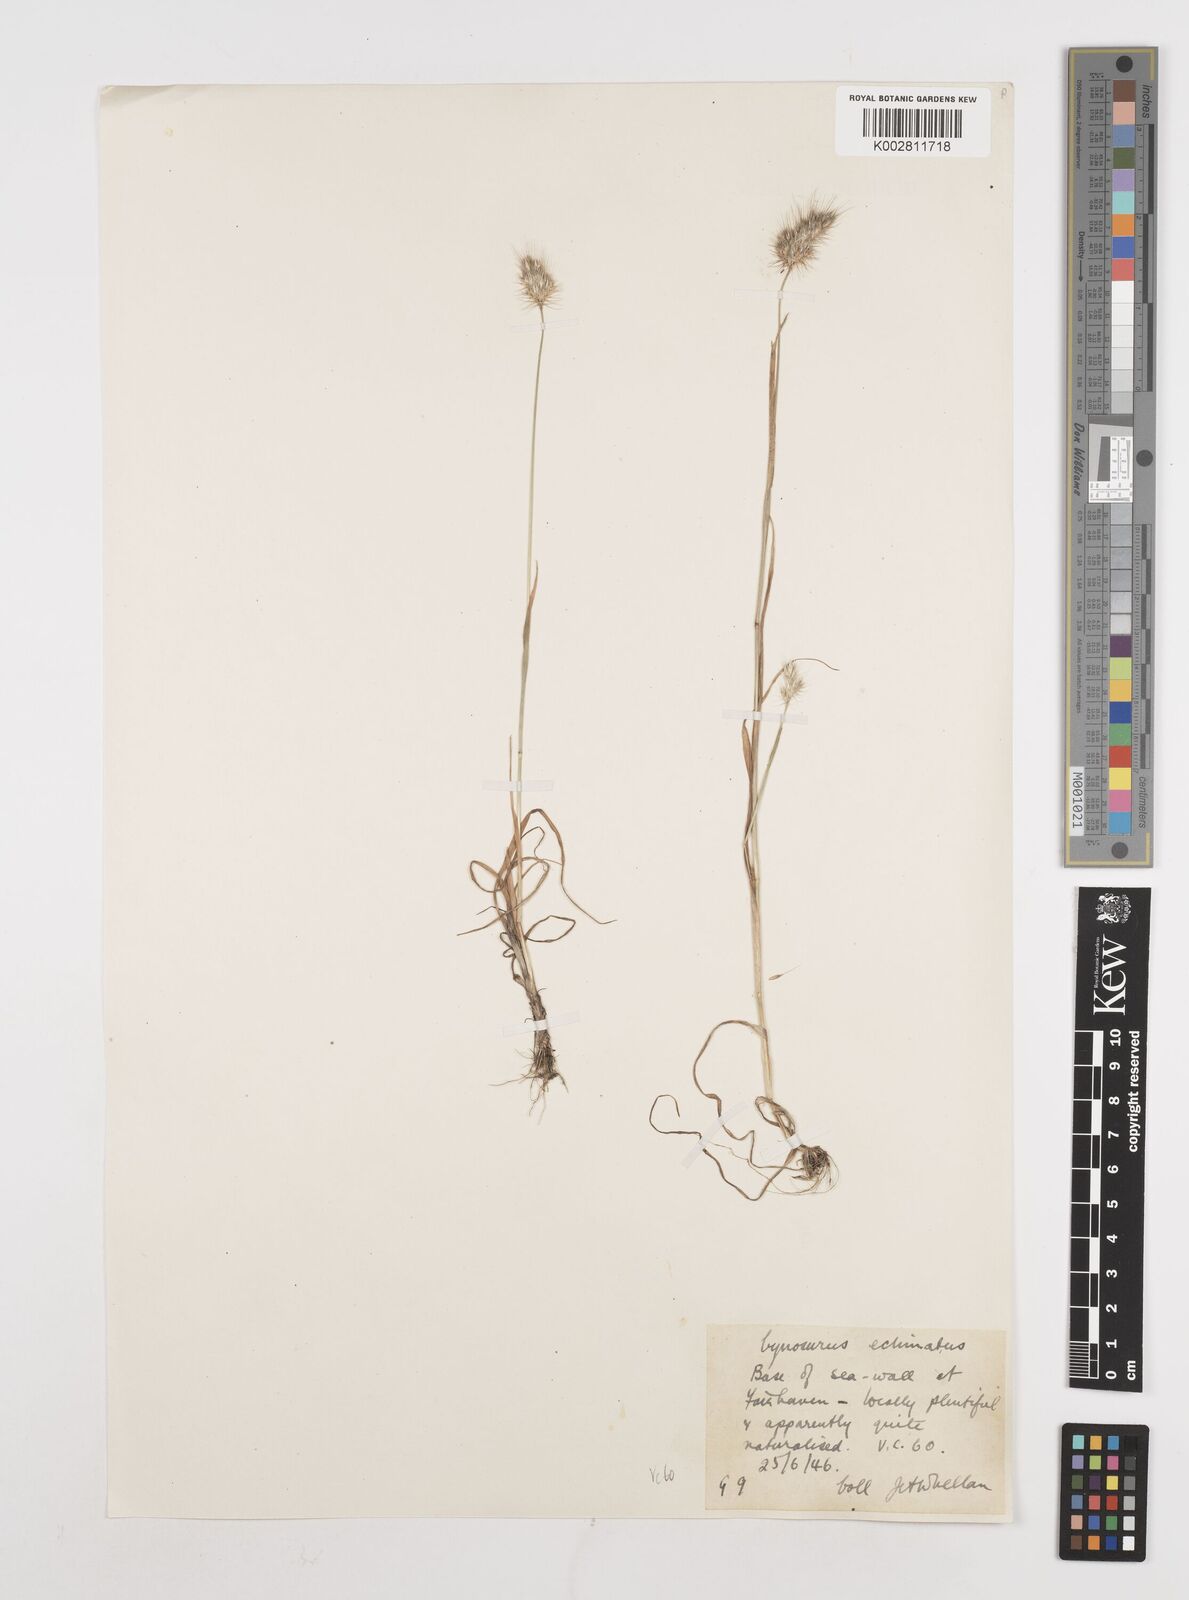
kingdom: Plantae
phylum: Tracheophyta
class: Liliopsida
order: Poales
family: Poaceae
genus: Cynosurus
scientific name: Cynosurus echinatus
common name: Rough dog's-tail
